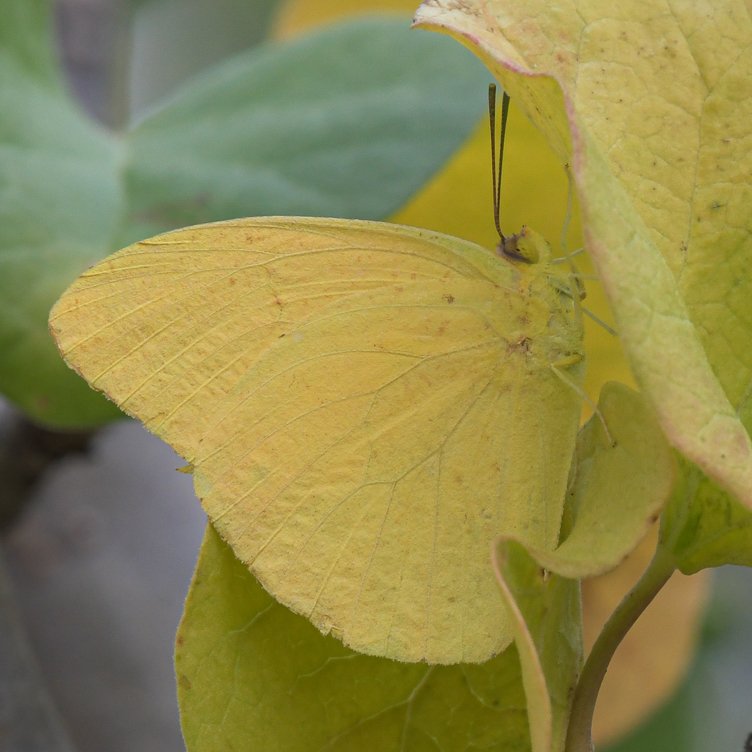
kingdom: Animalia
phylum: Arthropoda
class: Insecta
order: Lepidoptera
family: Pieridae
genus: Phoebis
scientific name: Phoebis agarithe
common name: Large Orange Sulphur
